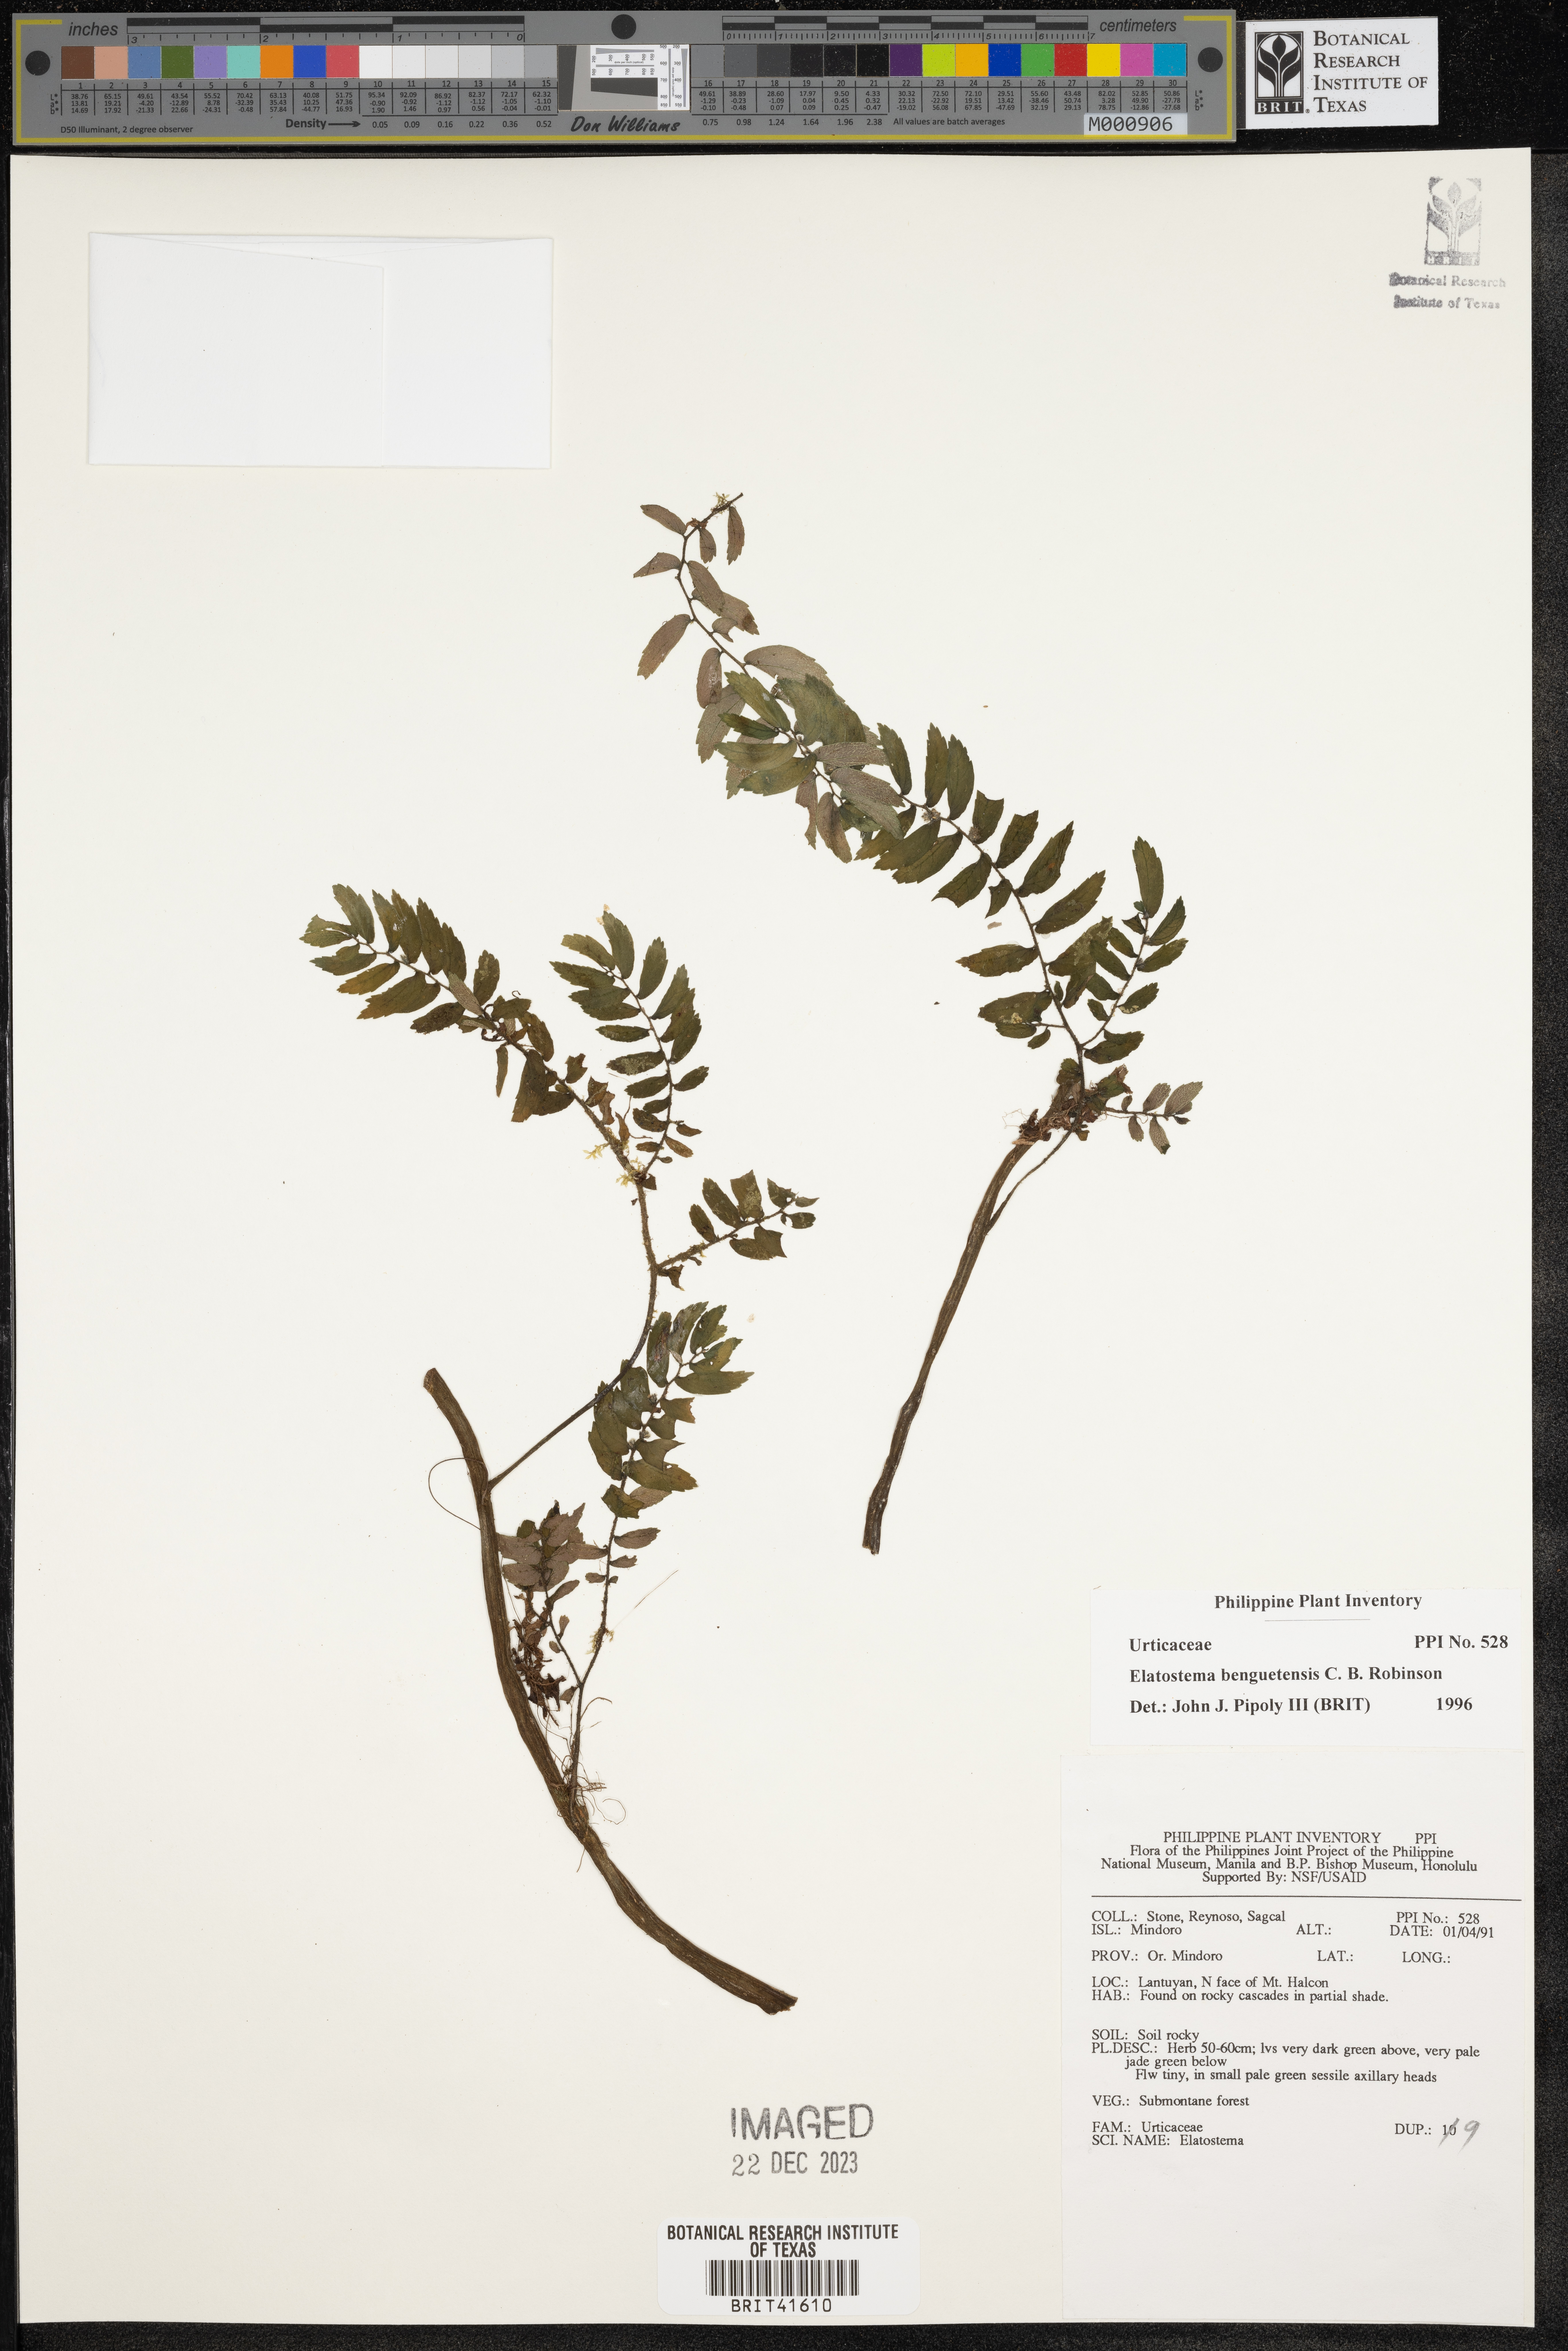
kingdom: Plantae
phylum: Tracheophyta
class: Magnoliopsida
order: Rosales
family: Urticaceae
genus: Elatostema
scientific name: Elatostema benguetense
